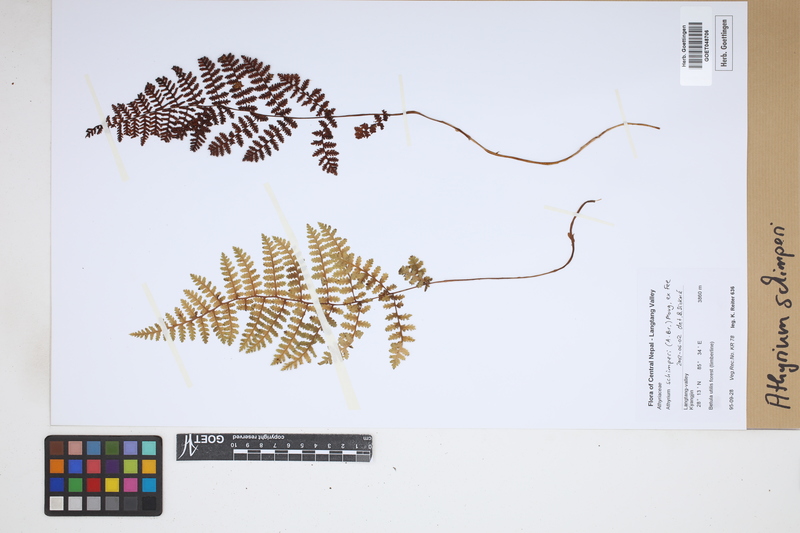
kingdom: Plantae
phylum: Tracheophyta
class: Polypodiopsida
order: Polypodiales
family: Athyriaceae
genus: Athyrium
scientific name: Athyrium schimperi
